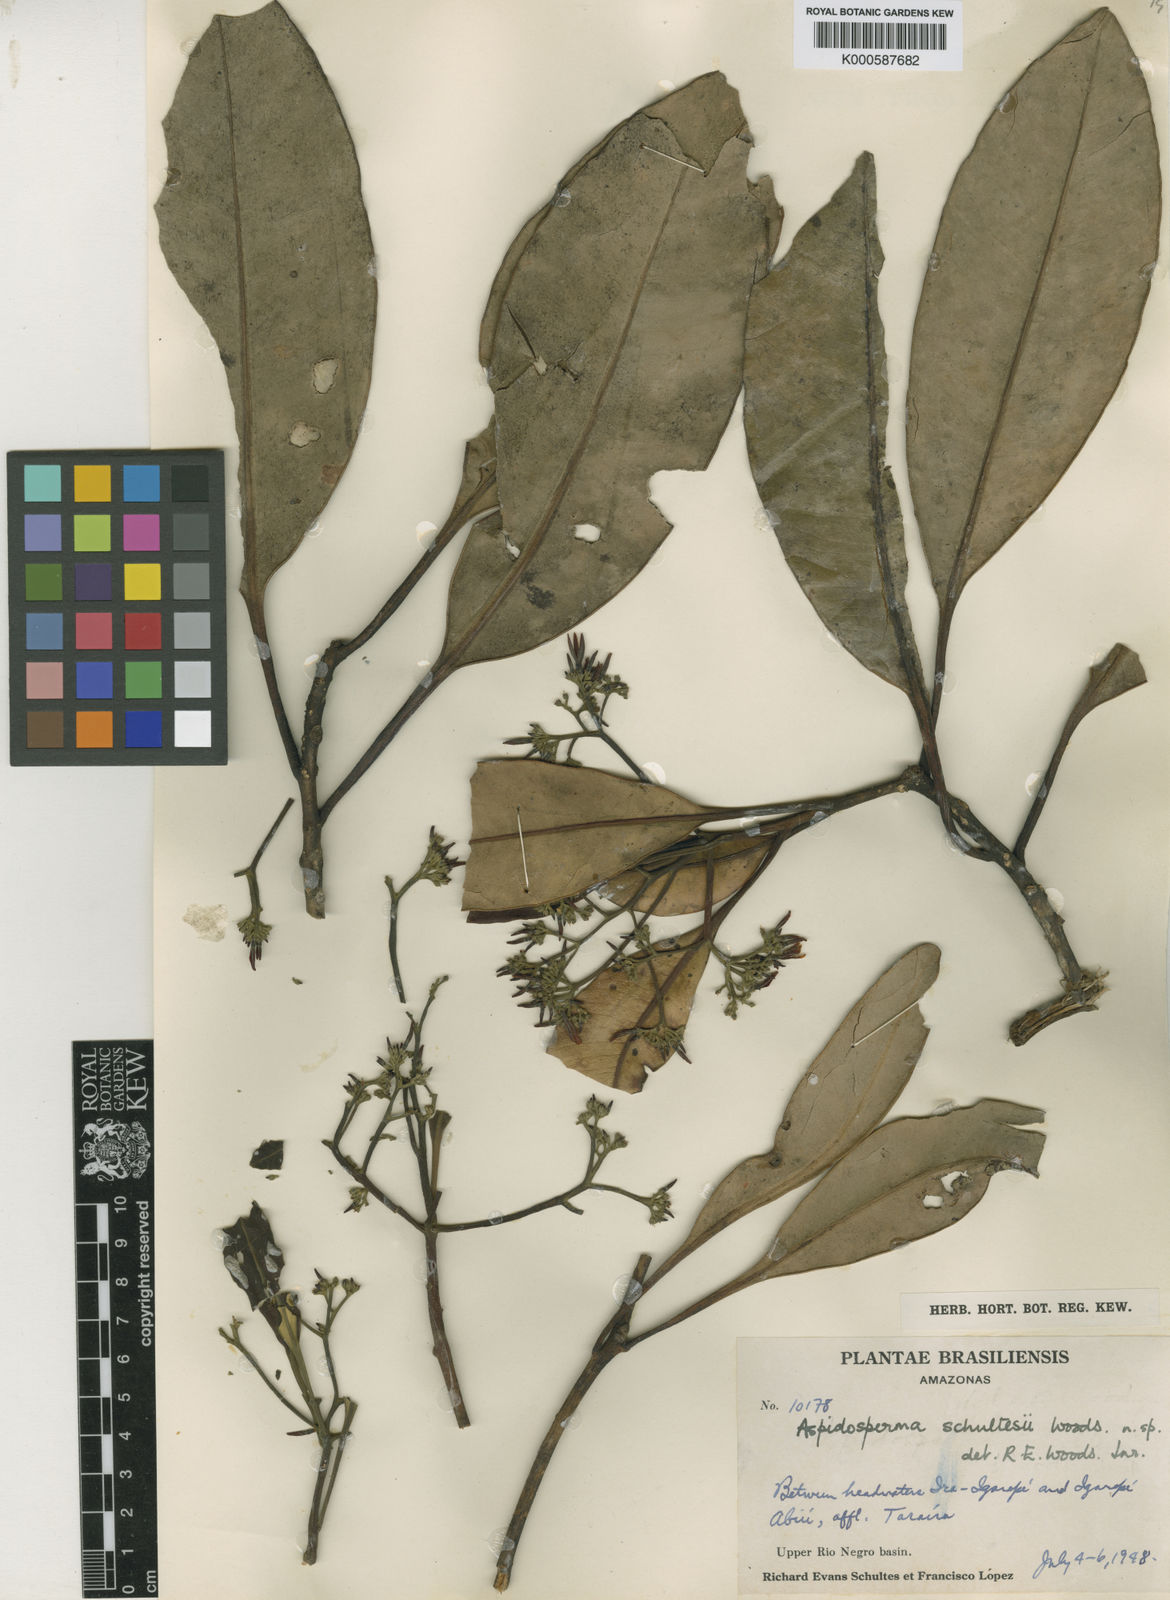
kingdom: Plantae
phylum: Tracheophyta
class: Magnoliopsida
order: Gentianales
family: Apocynaceae
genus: Aspidosperma
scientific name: Aspidosperma schultesii
